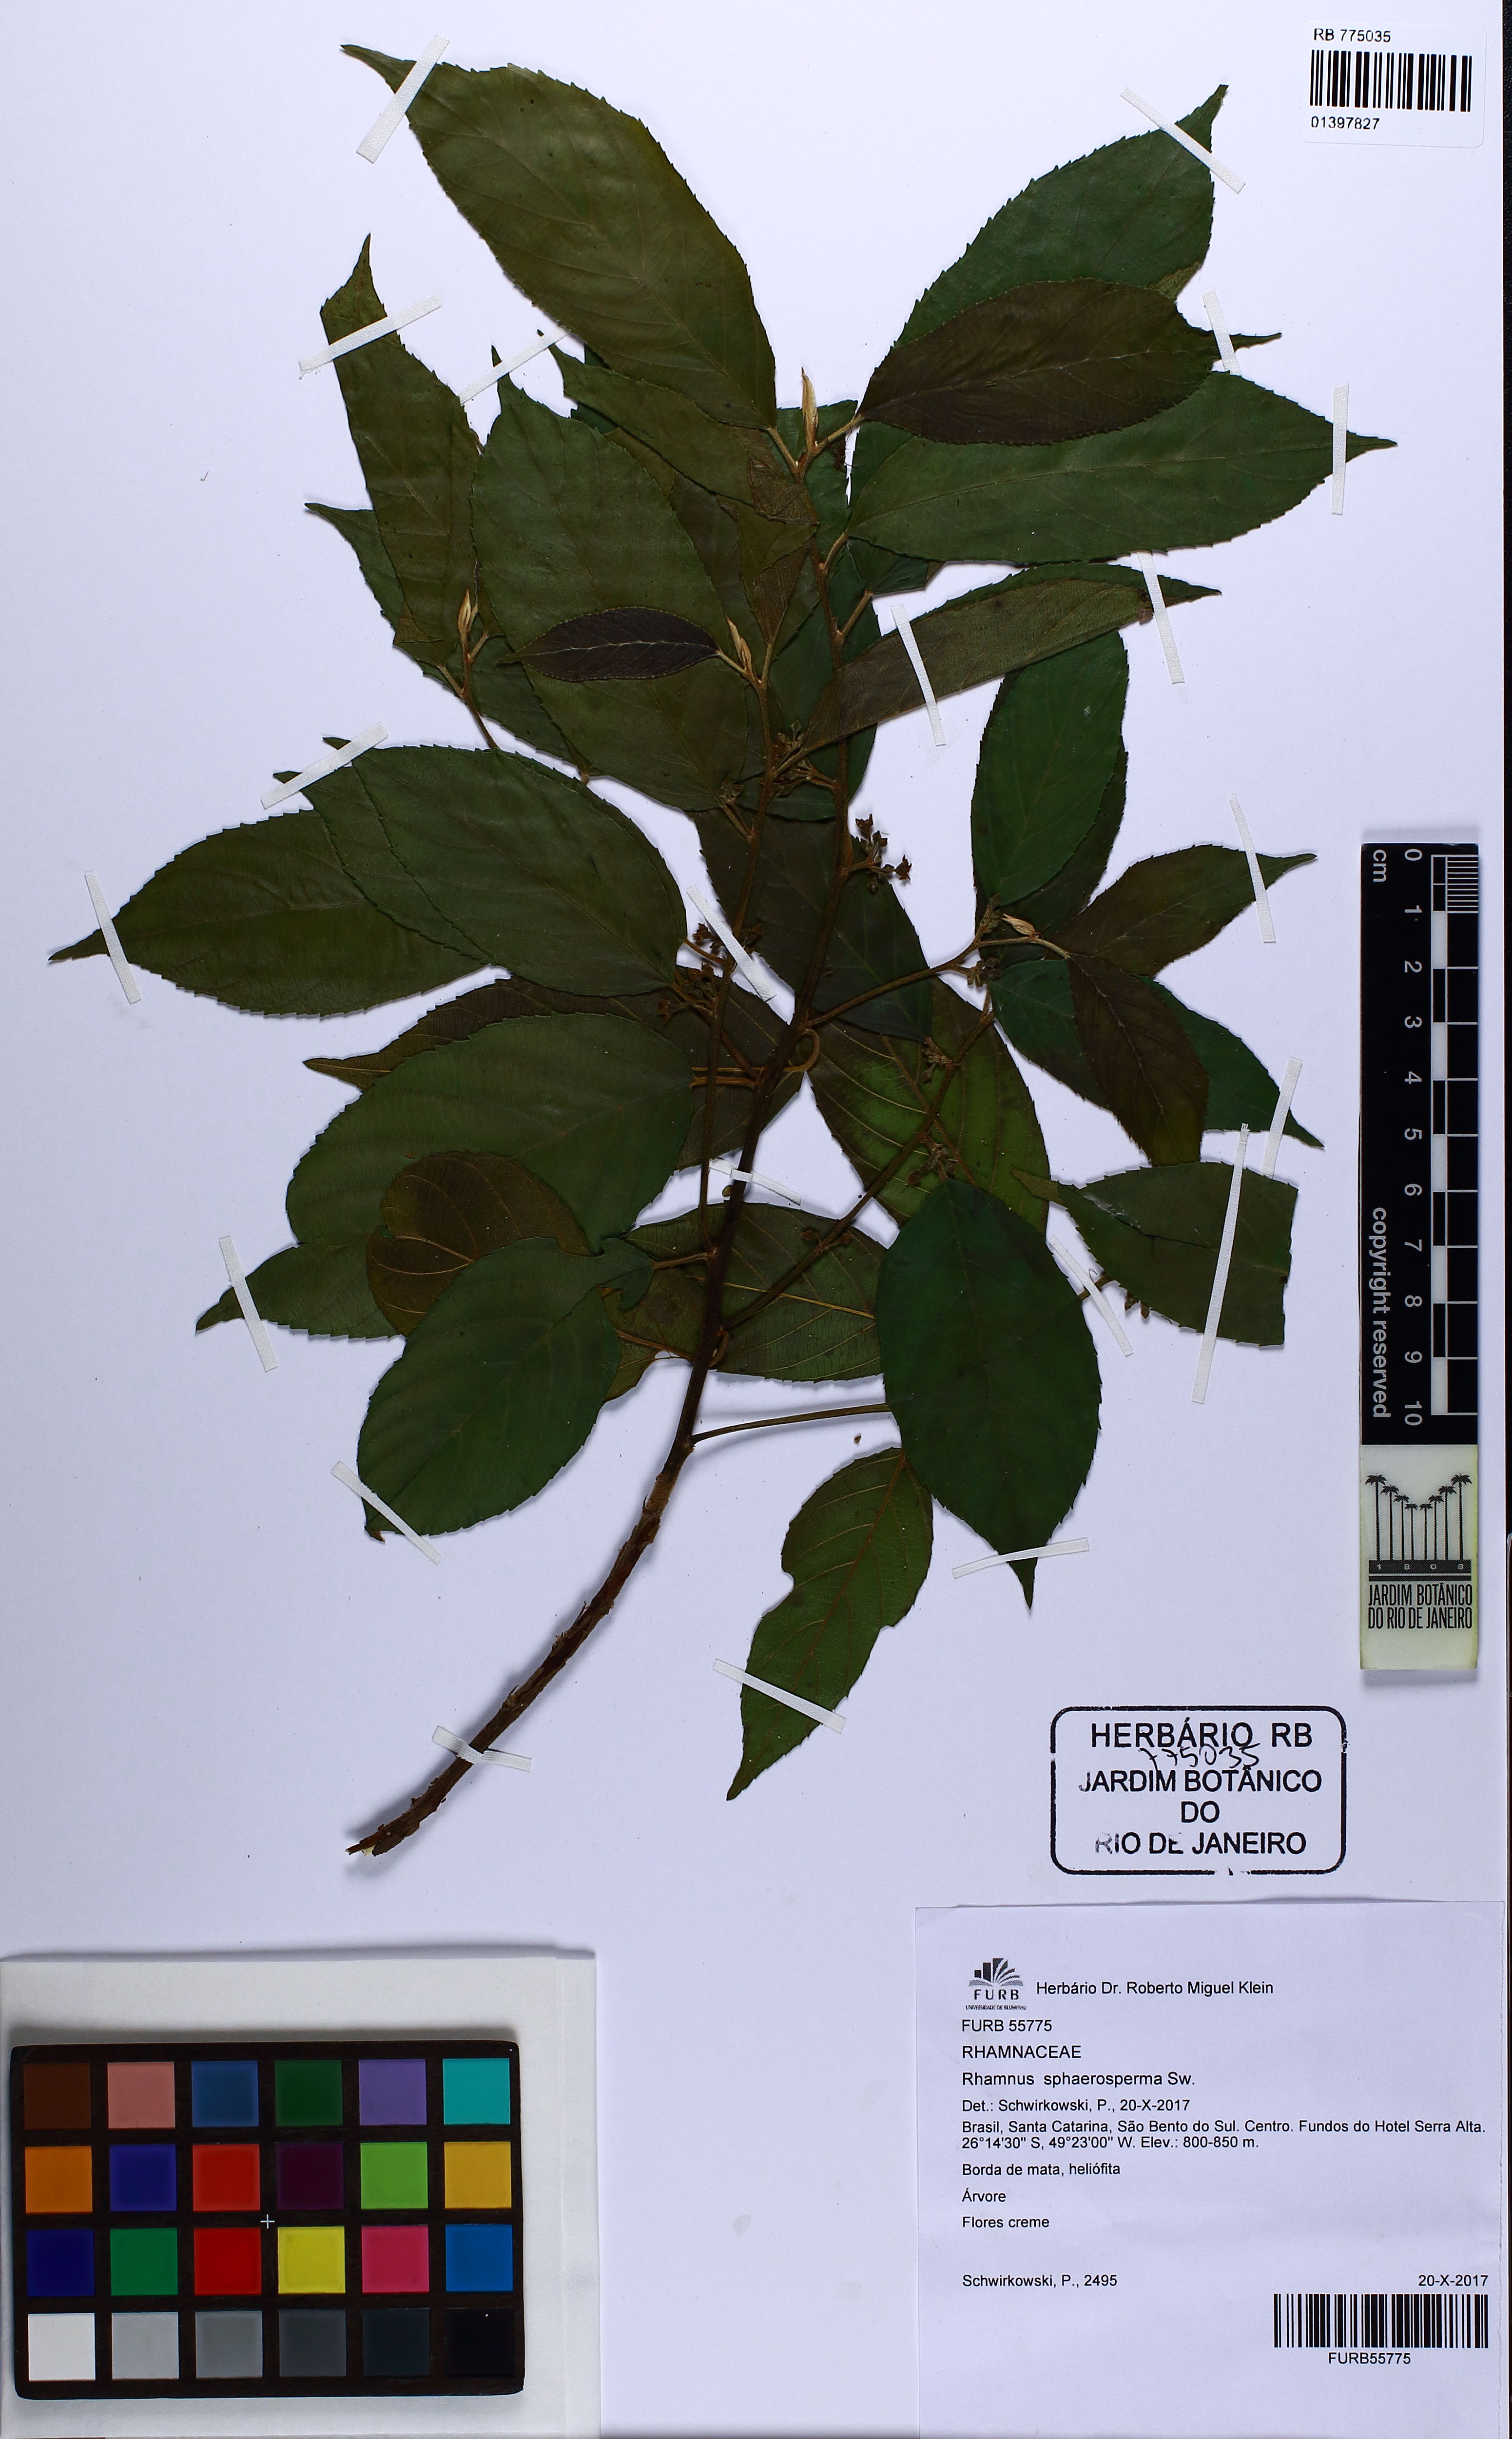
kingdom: Plantae
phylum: Tracheophyta
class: Magnoliopsida
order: Rosales
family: Rhamnaceae
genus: Frangula
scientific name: Frangula sphaerosperma
